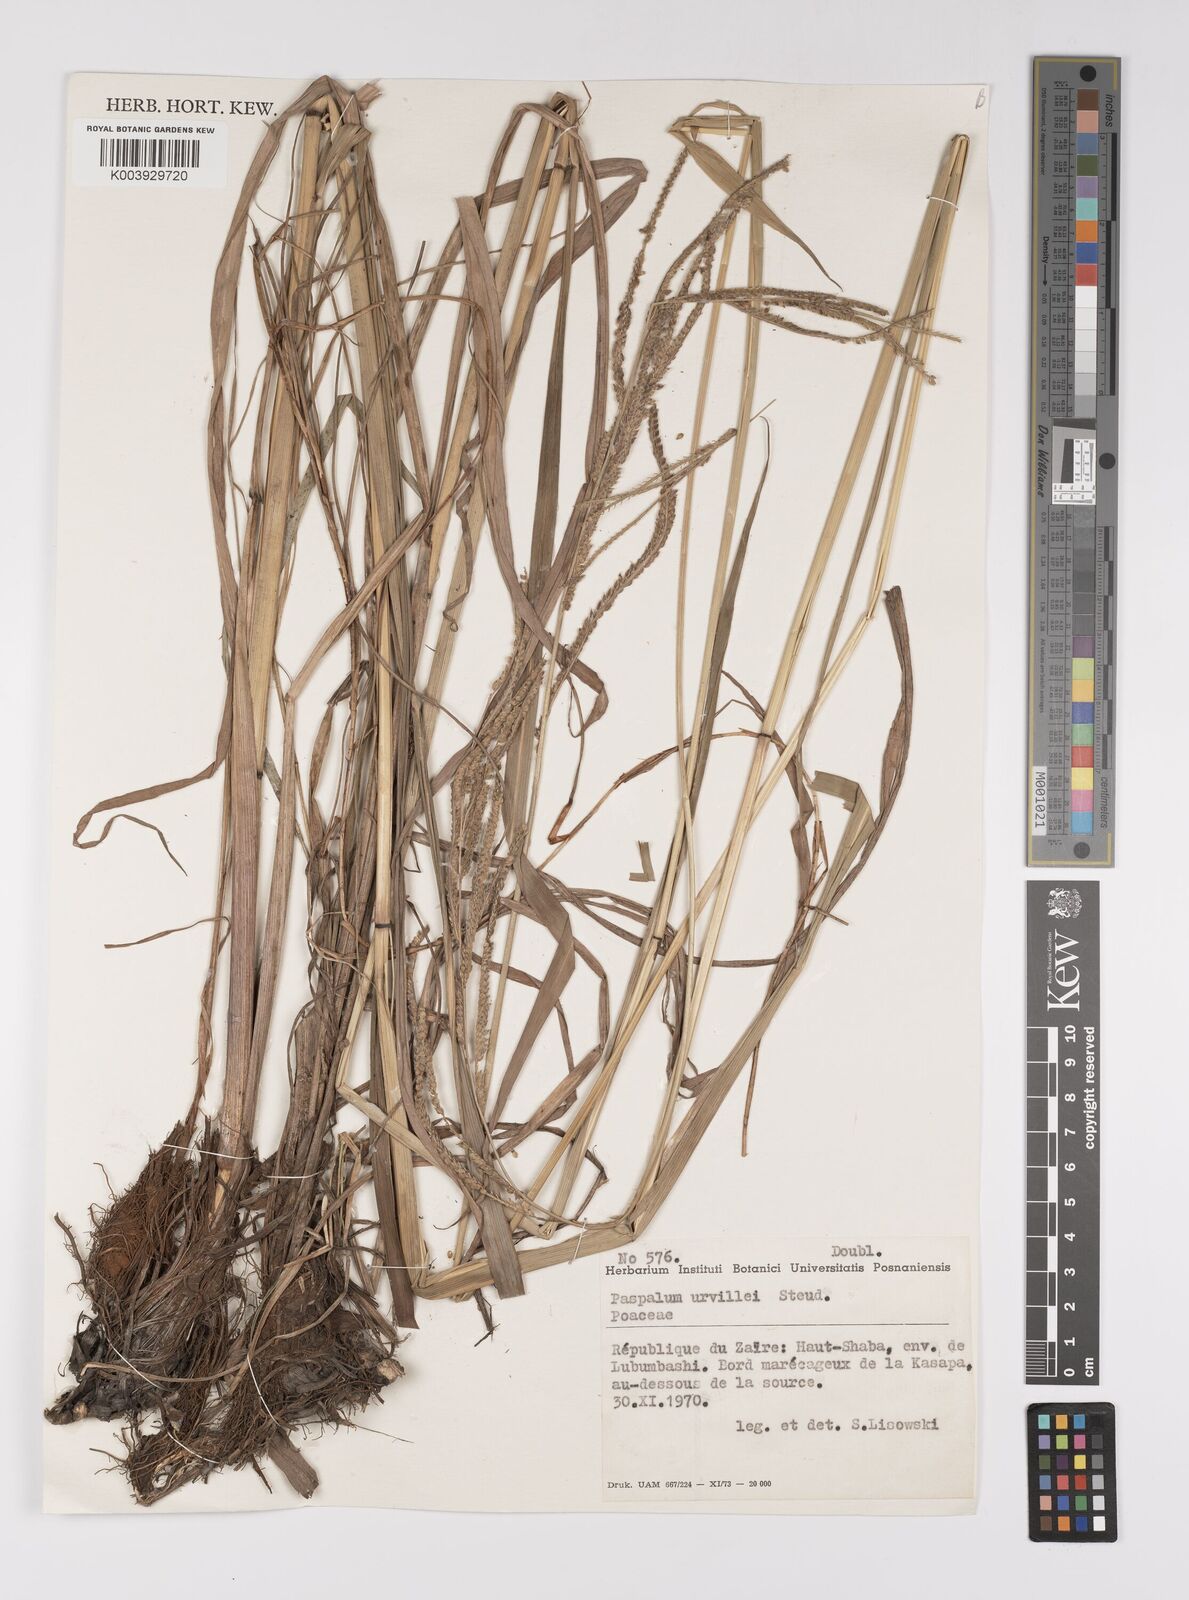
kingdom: Plantae
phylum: Tracheophyta
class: Liliopsida
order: Poales
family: Poaceae
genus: Paspalum
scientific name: Paspalum urvillei
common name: Vasey's grass
